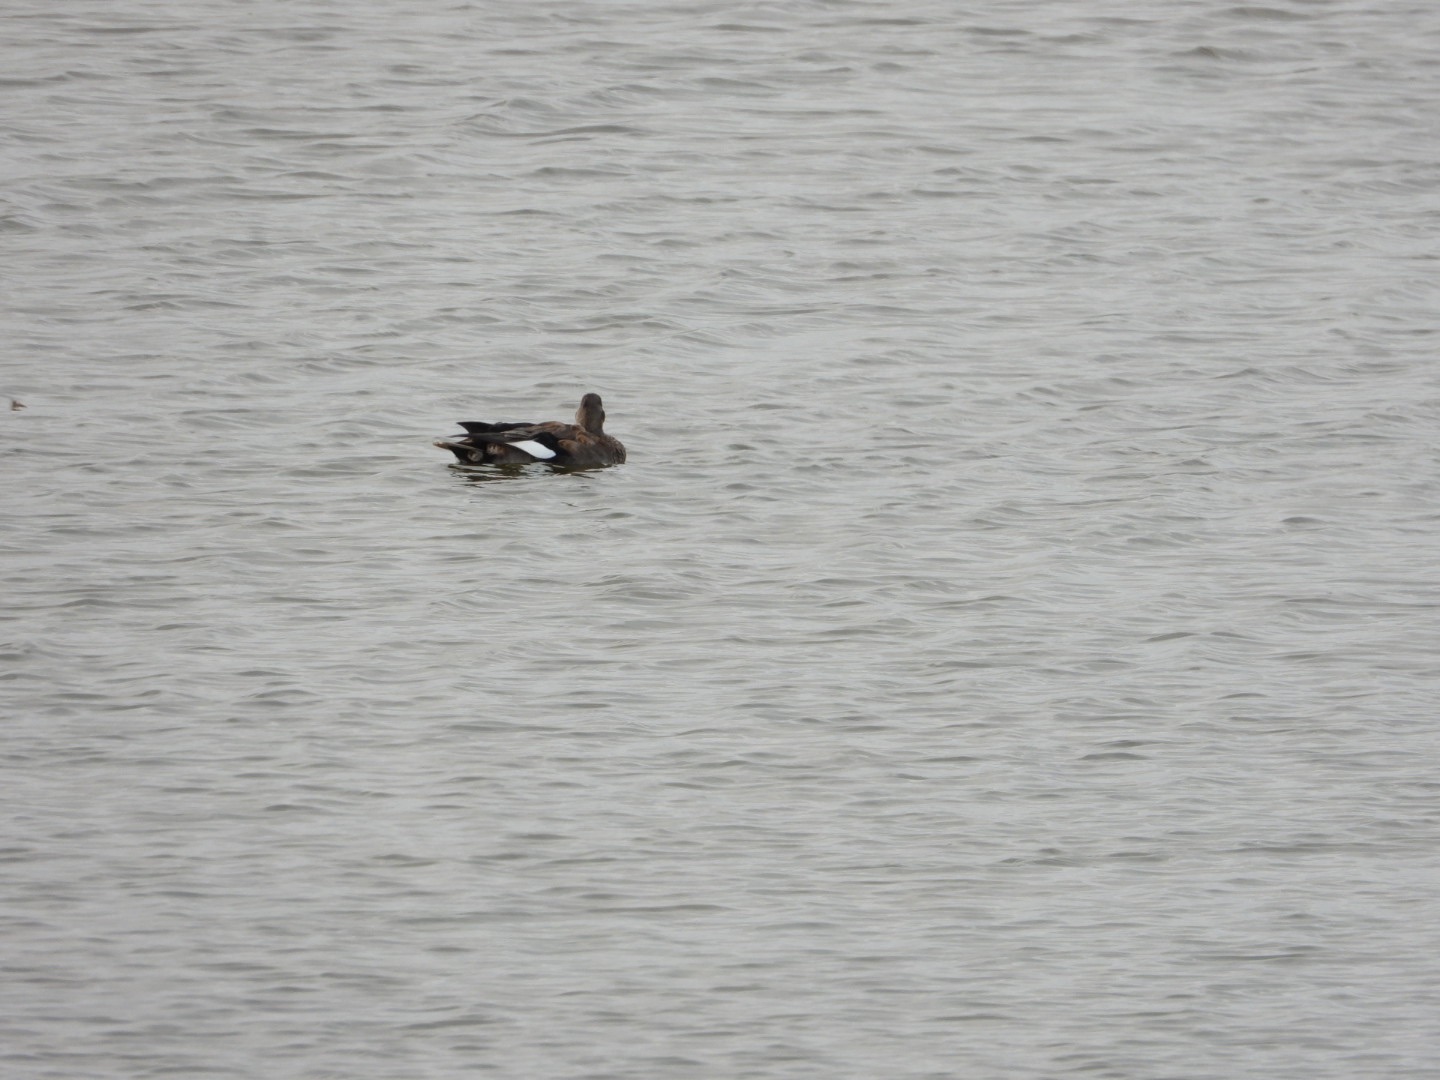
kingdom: Animalia
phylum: Chordata
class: Aves
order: Anseriformes
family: Anatidae
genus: Mareca
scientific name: Mareca strepera
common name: Knarand
